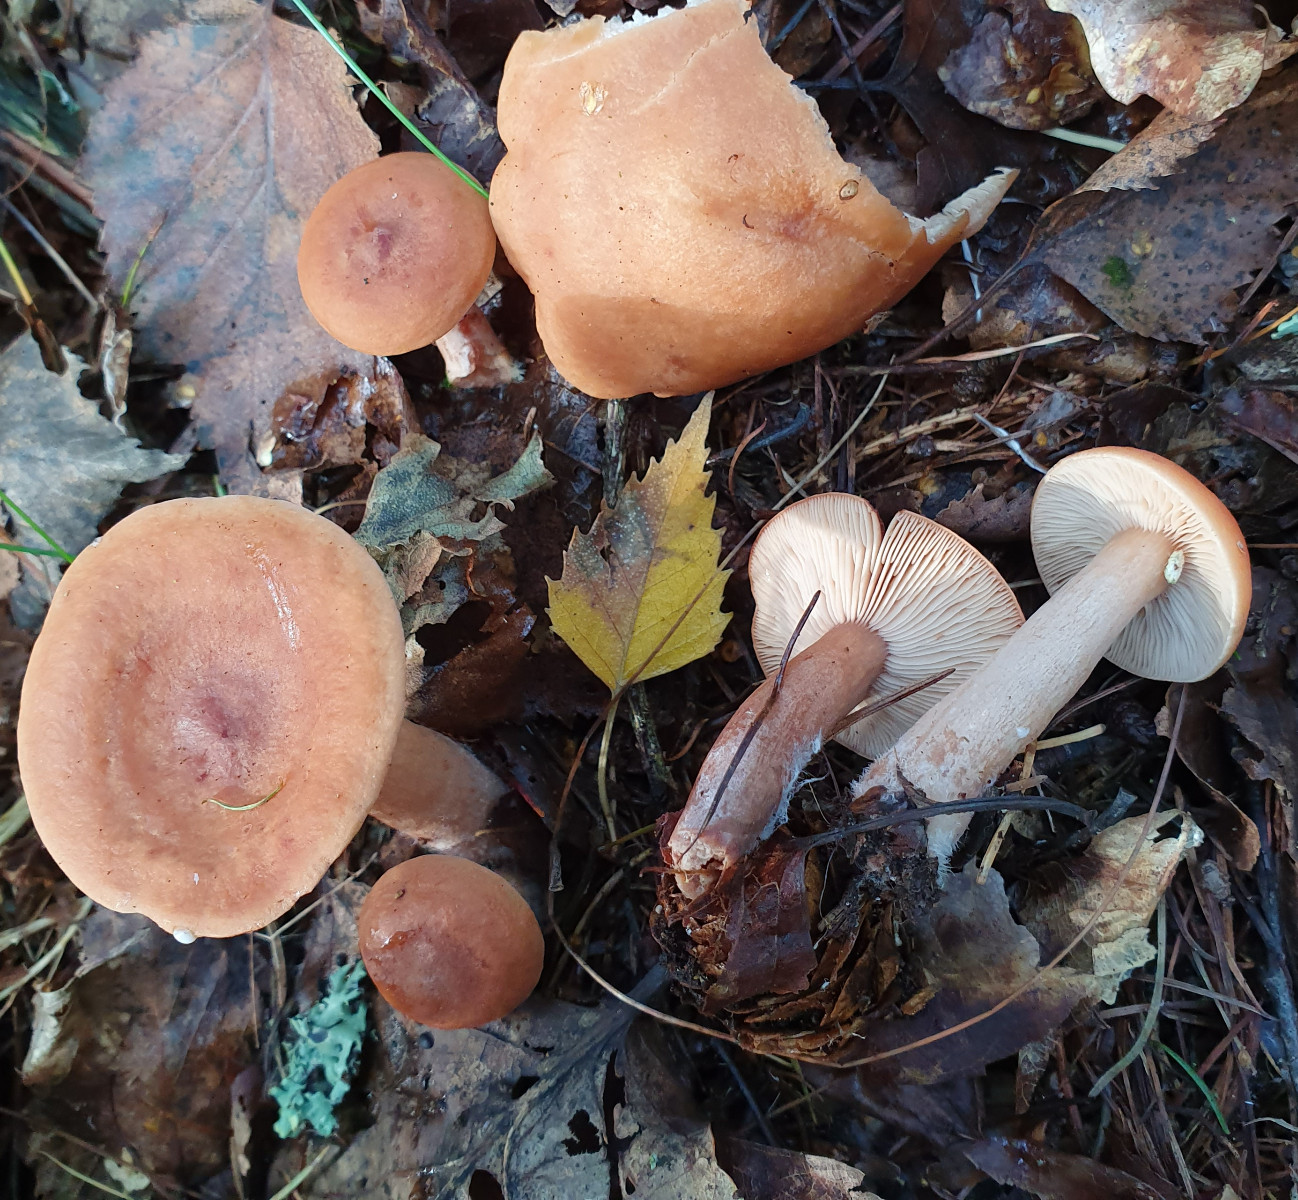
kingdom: Fungi
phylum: Basidiomycota
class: Agaricomycetes
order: Russulales
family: Russulaceae
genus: Lactarius
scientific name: Lactarius tabidus
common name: rynket mælkehat
